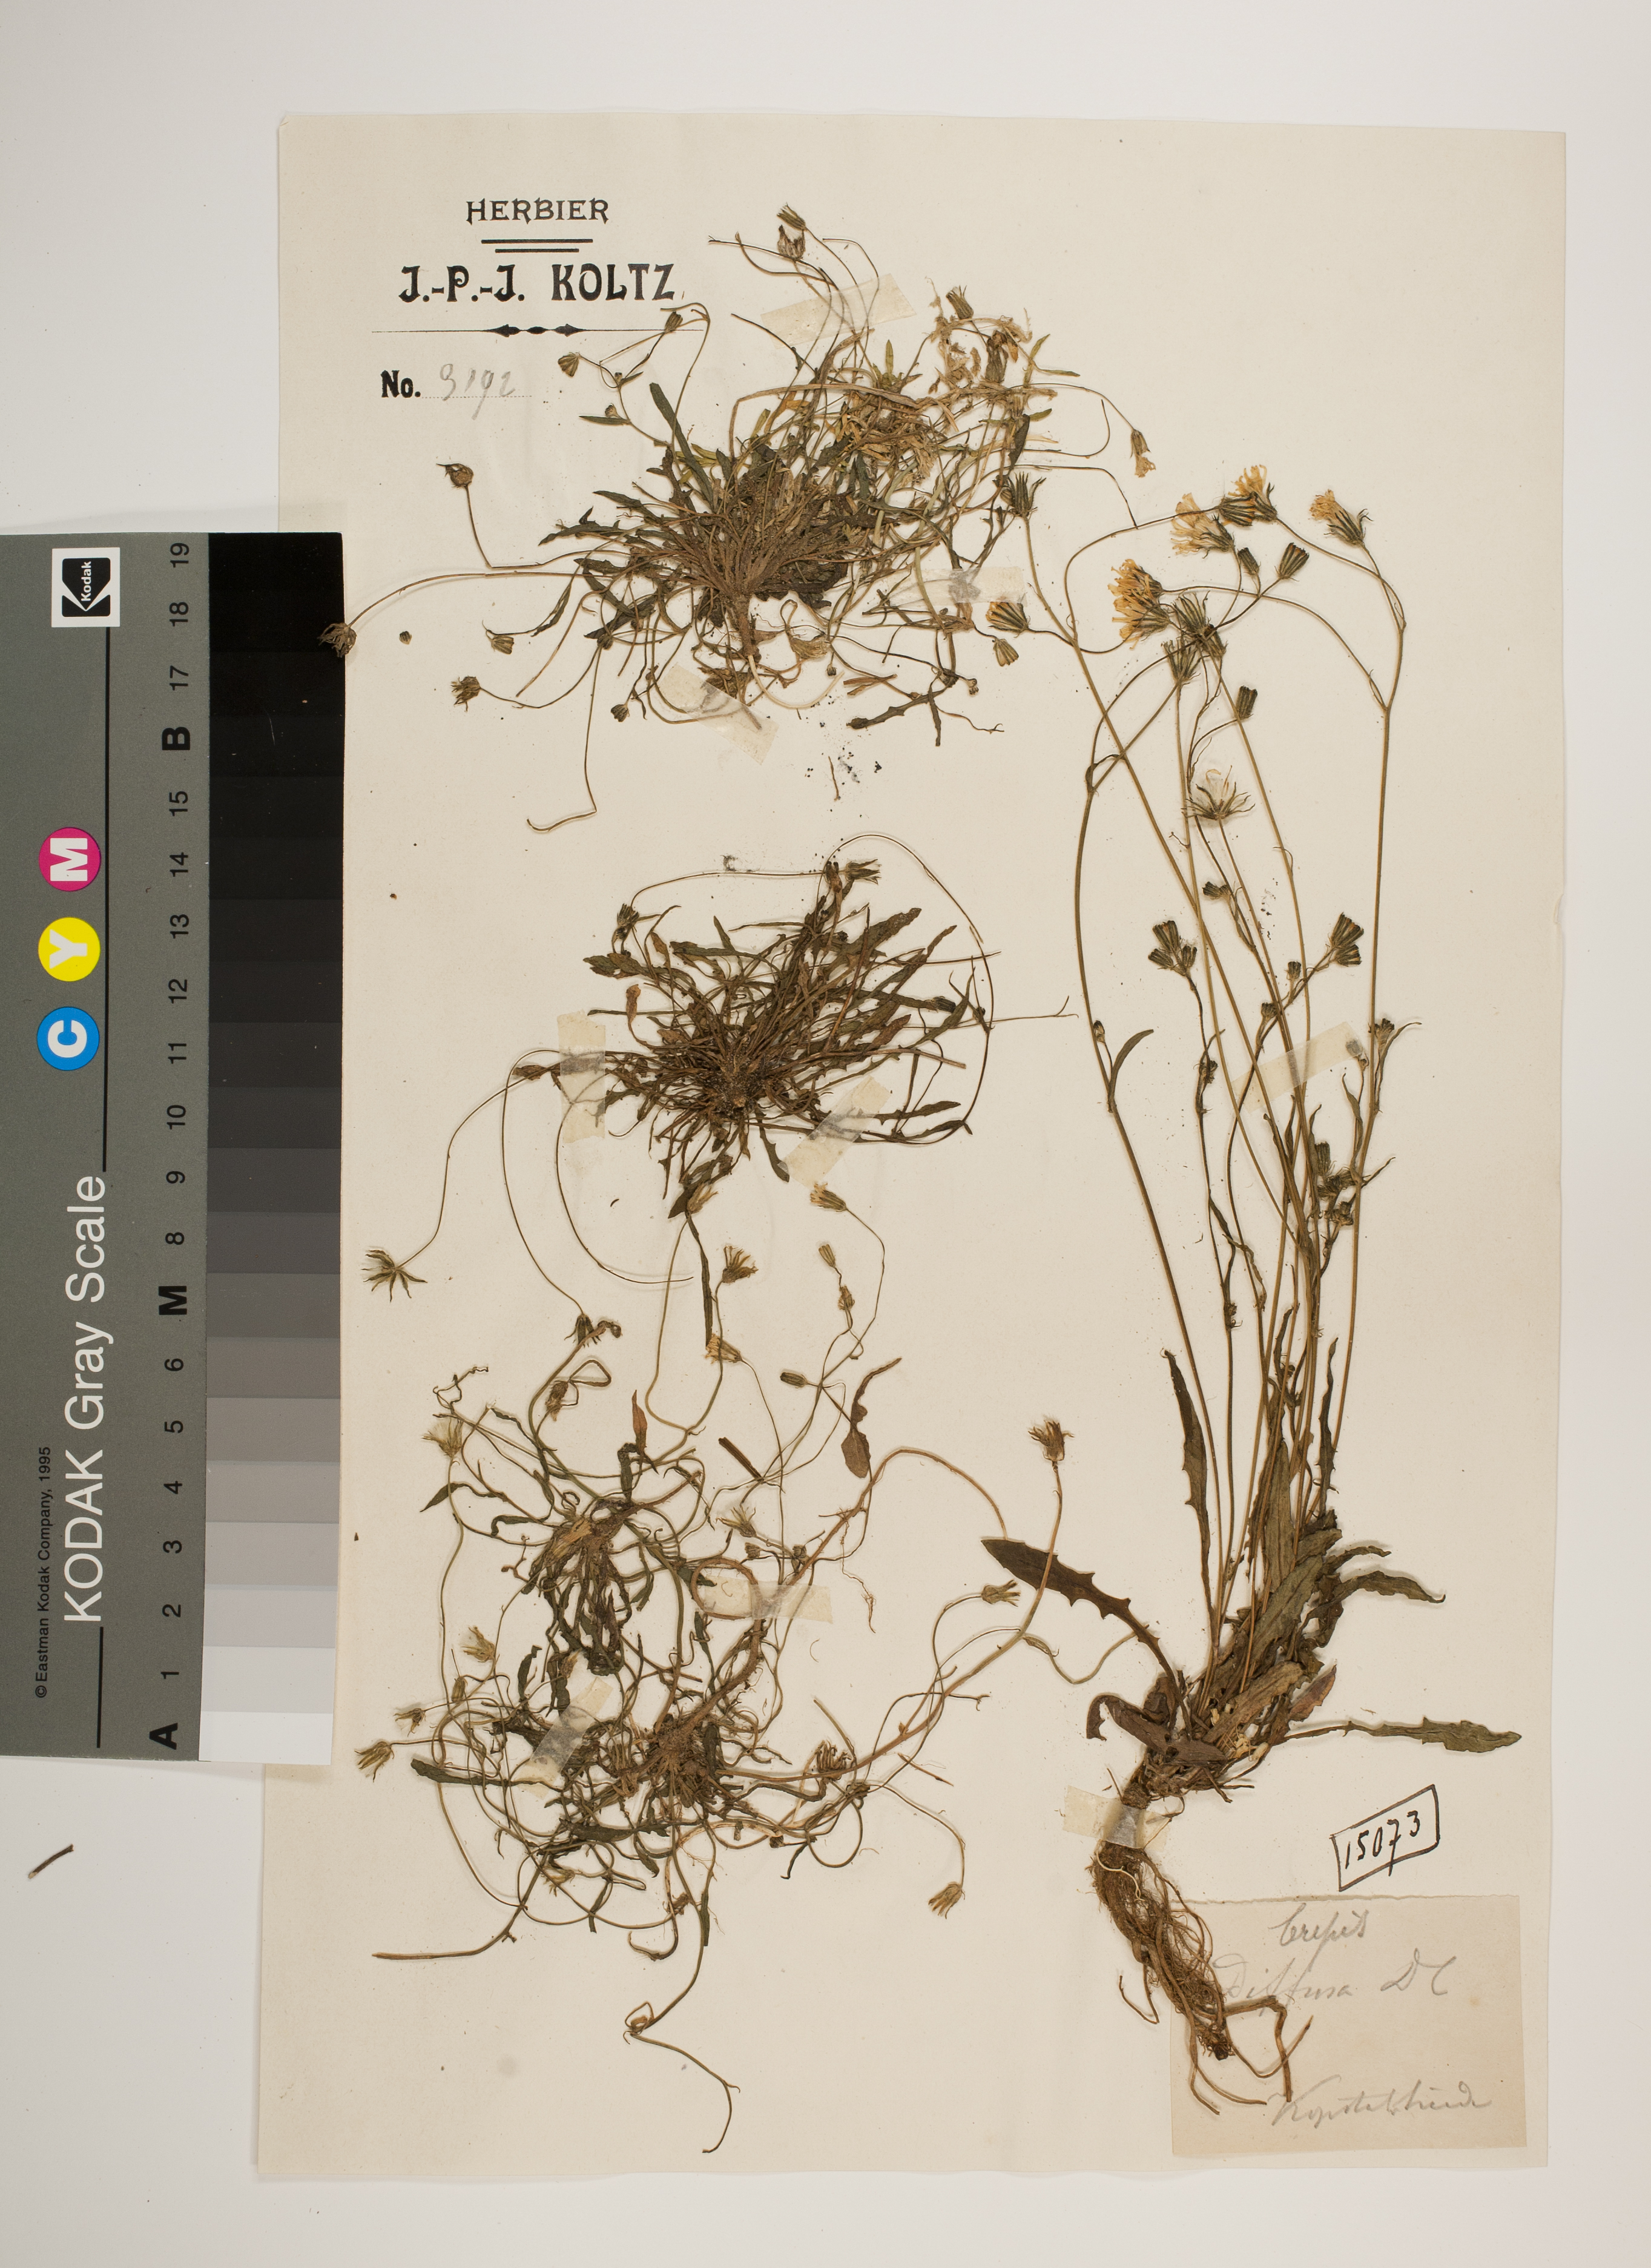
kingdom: Plantae
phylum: Tracheophyta
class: Magnoliopsida
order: Asterales
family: Asteraceae
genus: Crepis
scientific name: Crepis capillaris
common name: Smooth hawksbeard
